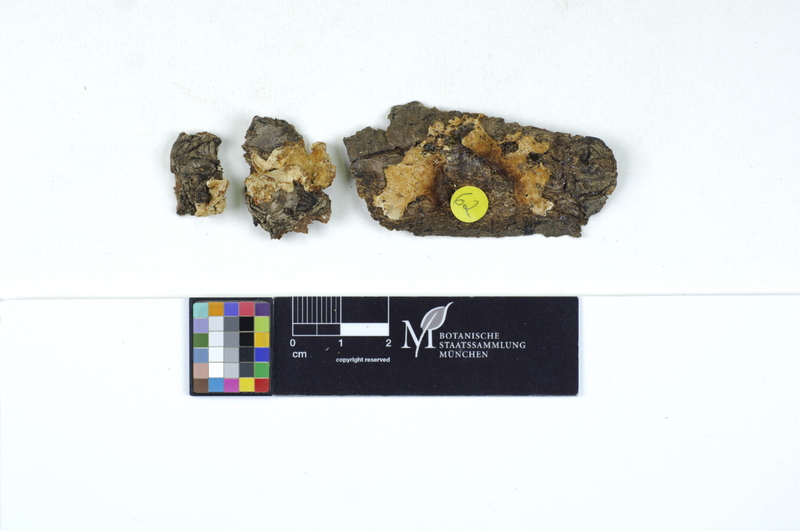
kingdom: Fungi
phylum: Basidiomycota
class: Agaricomycetes
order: Polyporales
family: Steccherinaceae
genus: Antrodiella
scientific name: Antrodiella onychoides
